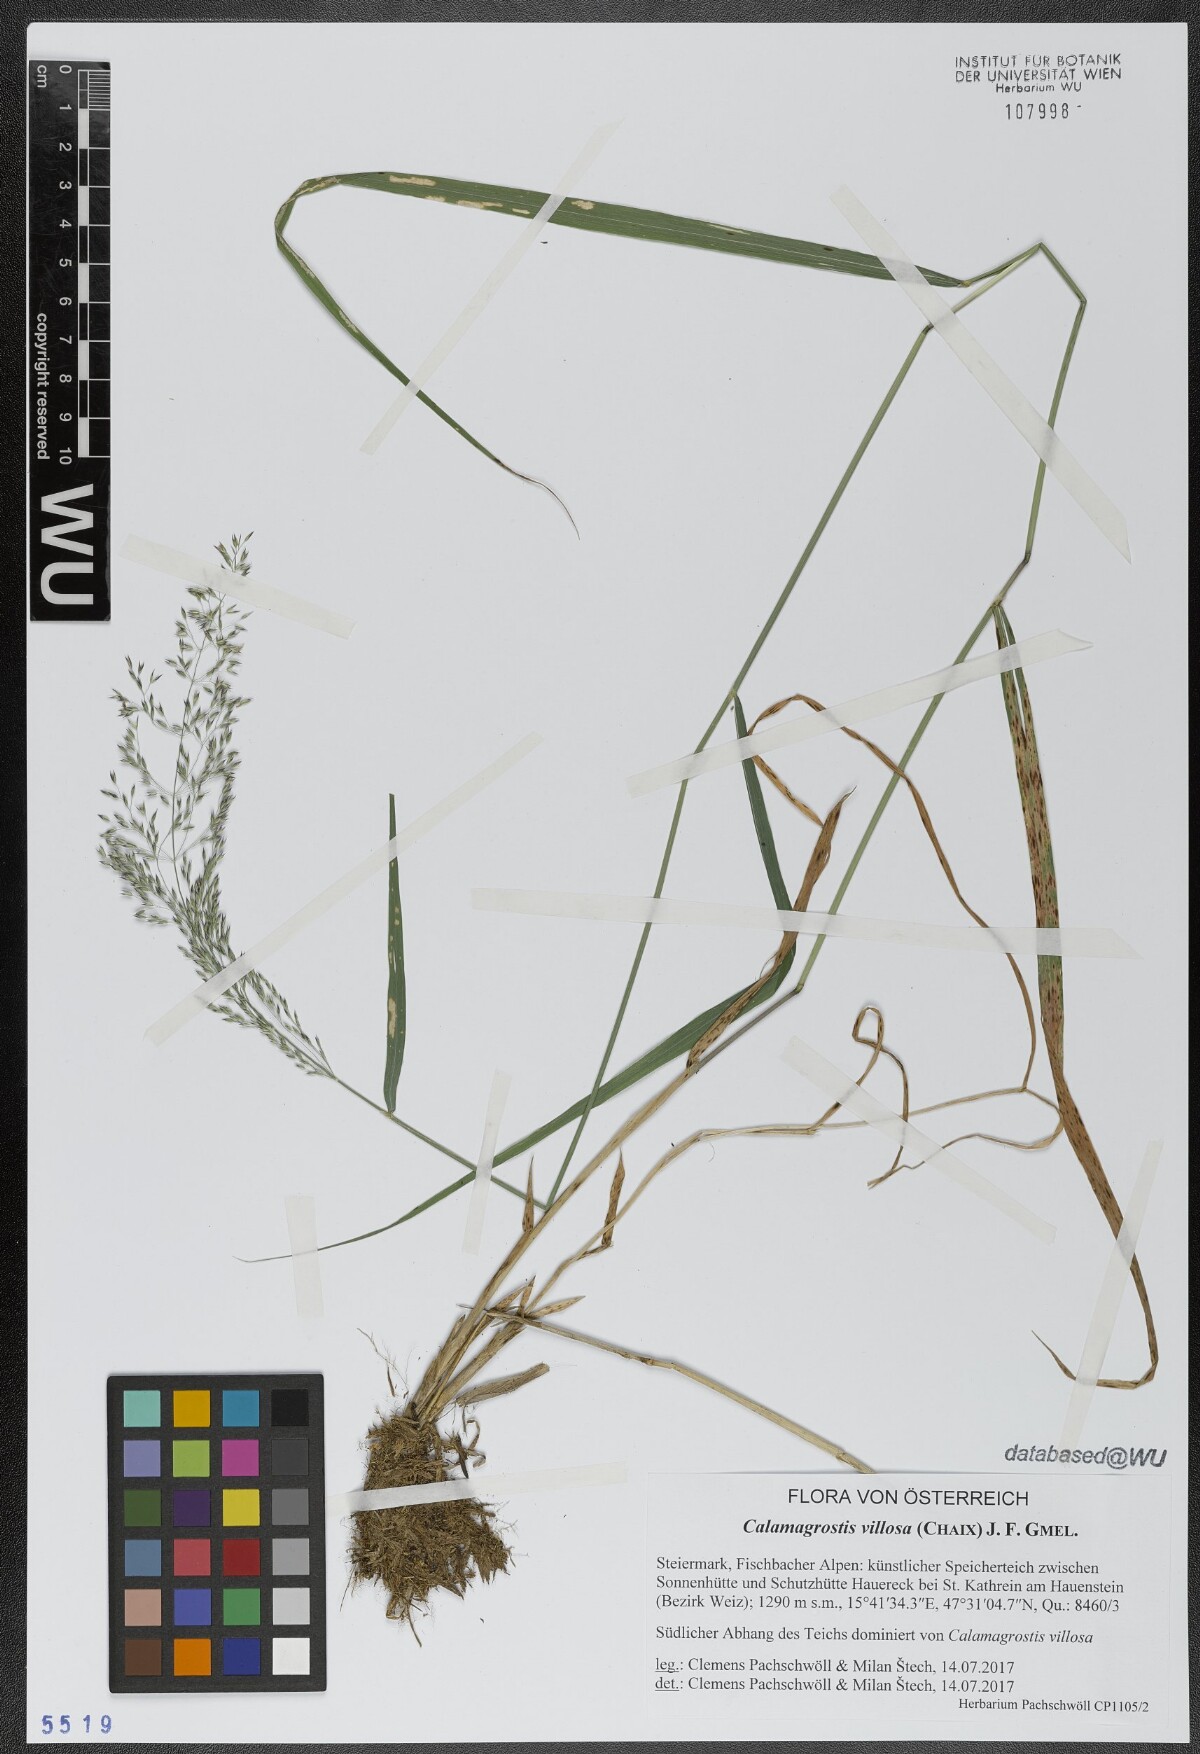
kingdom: Plantae
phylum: Tracheophyta
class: Liliopsida
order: Poales
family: Poaceae
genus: Calamagrostis
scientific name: Calamagrostis villosa
